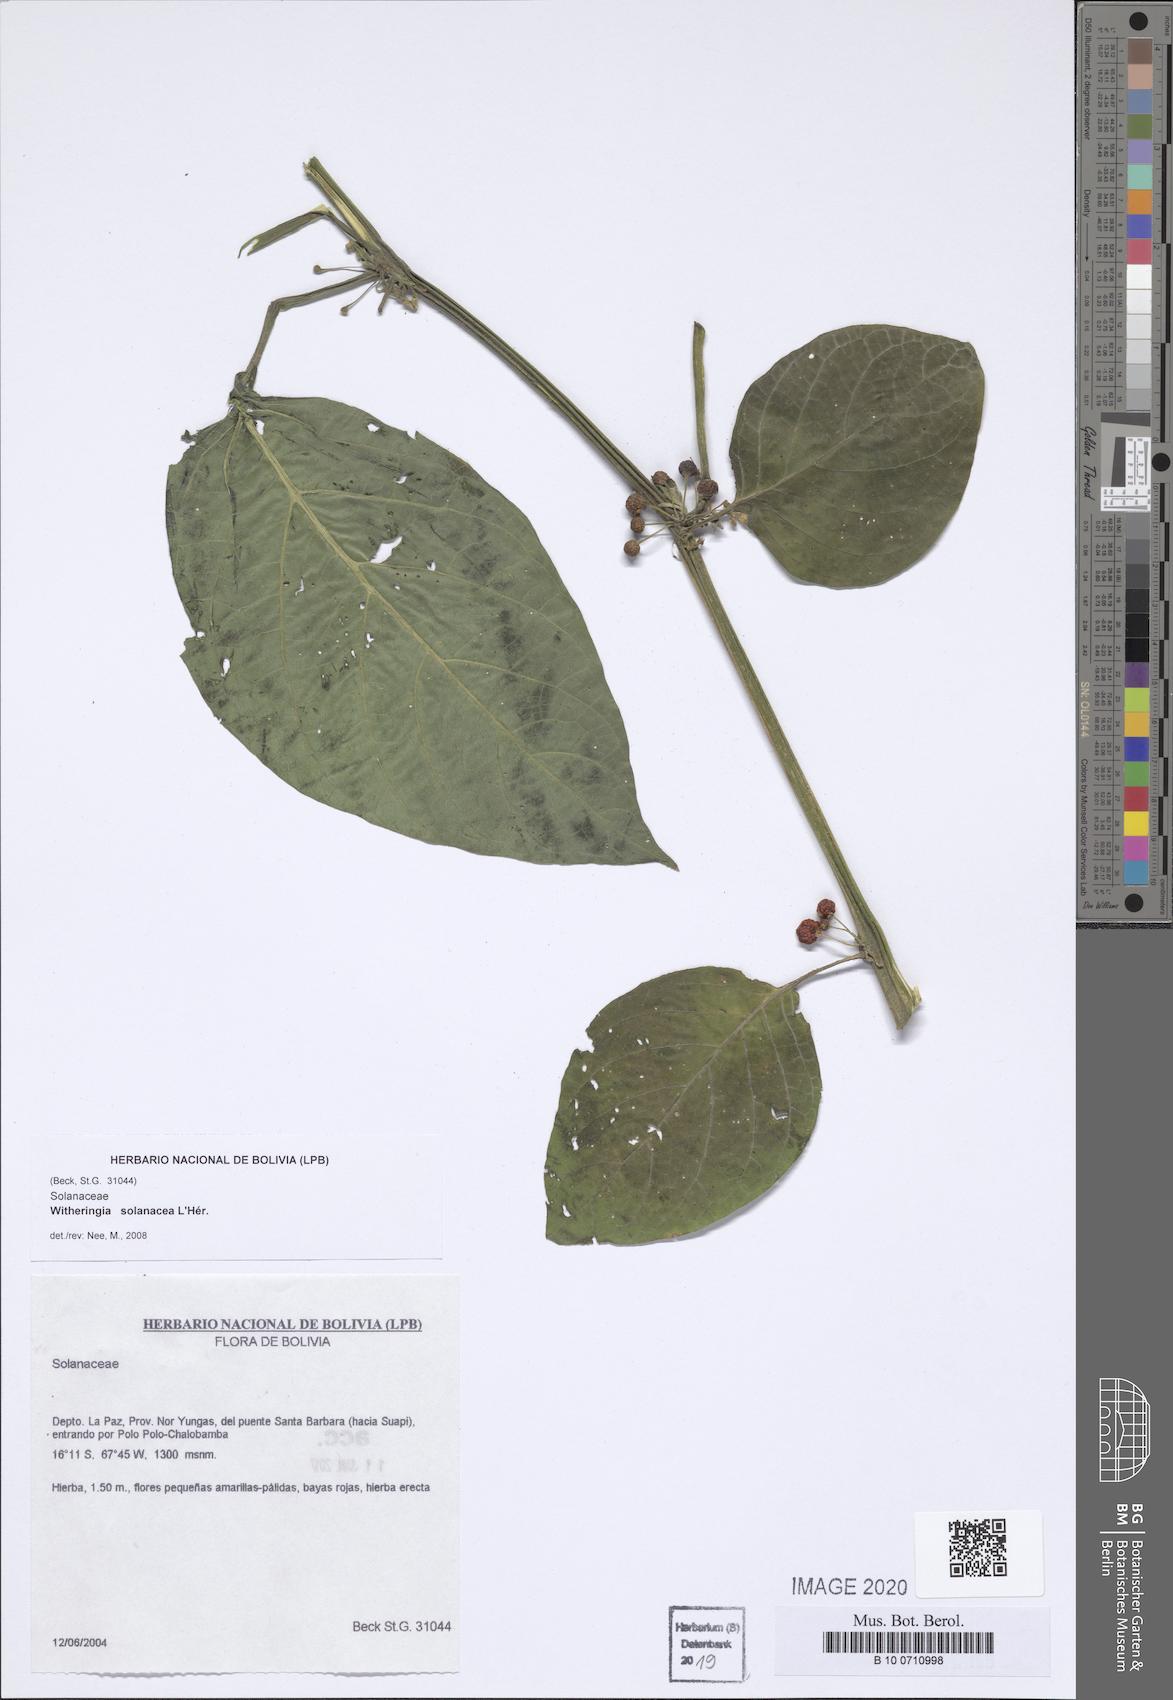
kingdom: Plantae
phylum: Tracheophyta
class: Magnoliopsida
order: Solanales
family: Solanaceae
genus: Witheringia
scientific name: Witheringia solanacea
